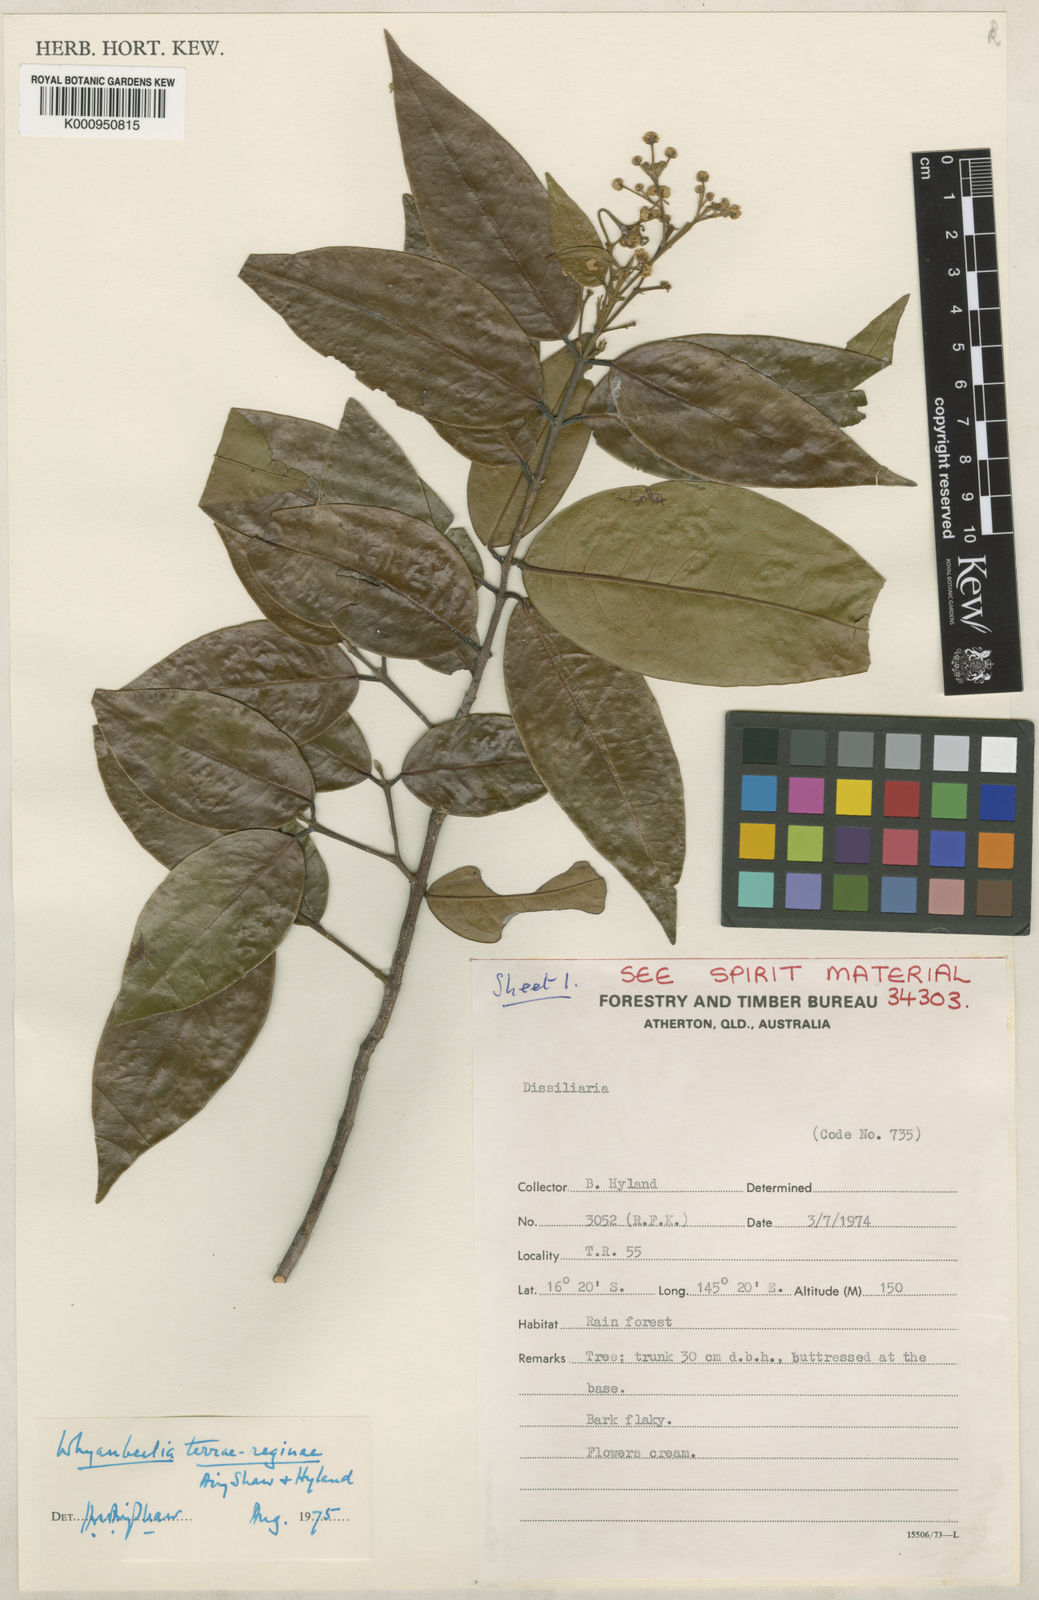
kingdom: Plantae
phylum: Tracheophyta
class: Magnoliopsida
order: Malpighiales
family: Picrodendraceae
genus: Whyanbeelia
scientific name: Whyanbeelia terrae-reginae
